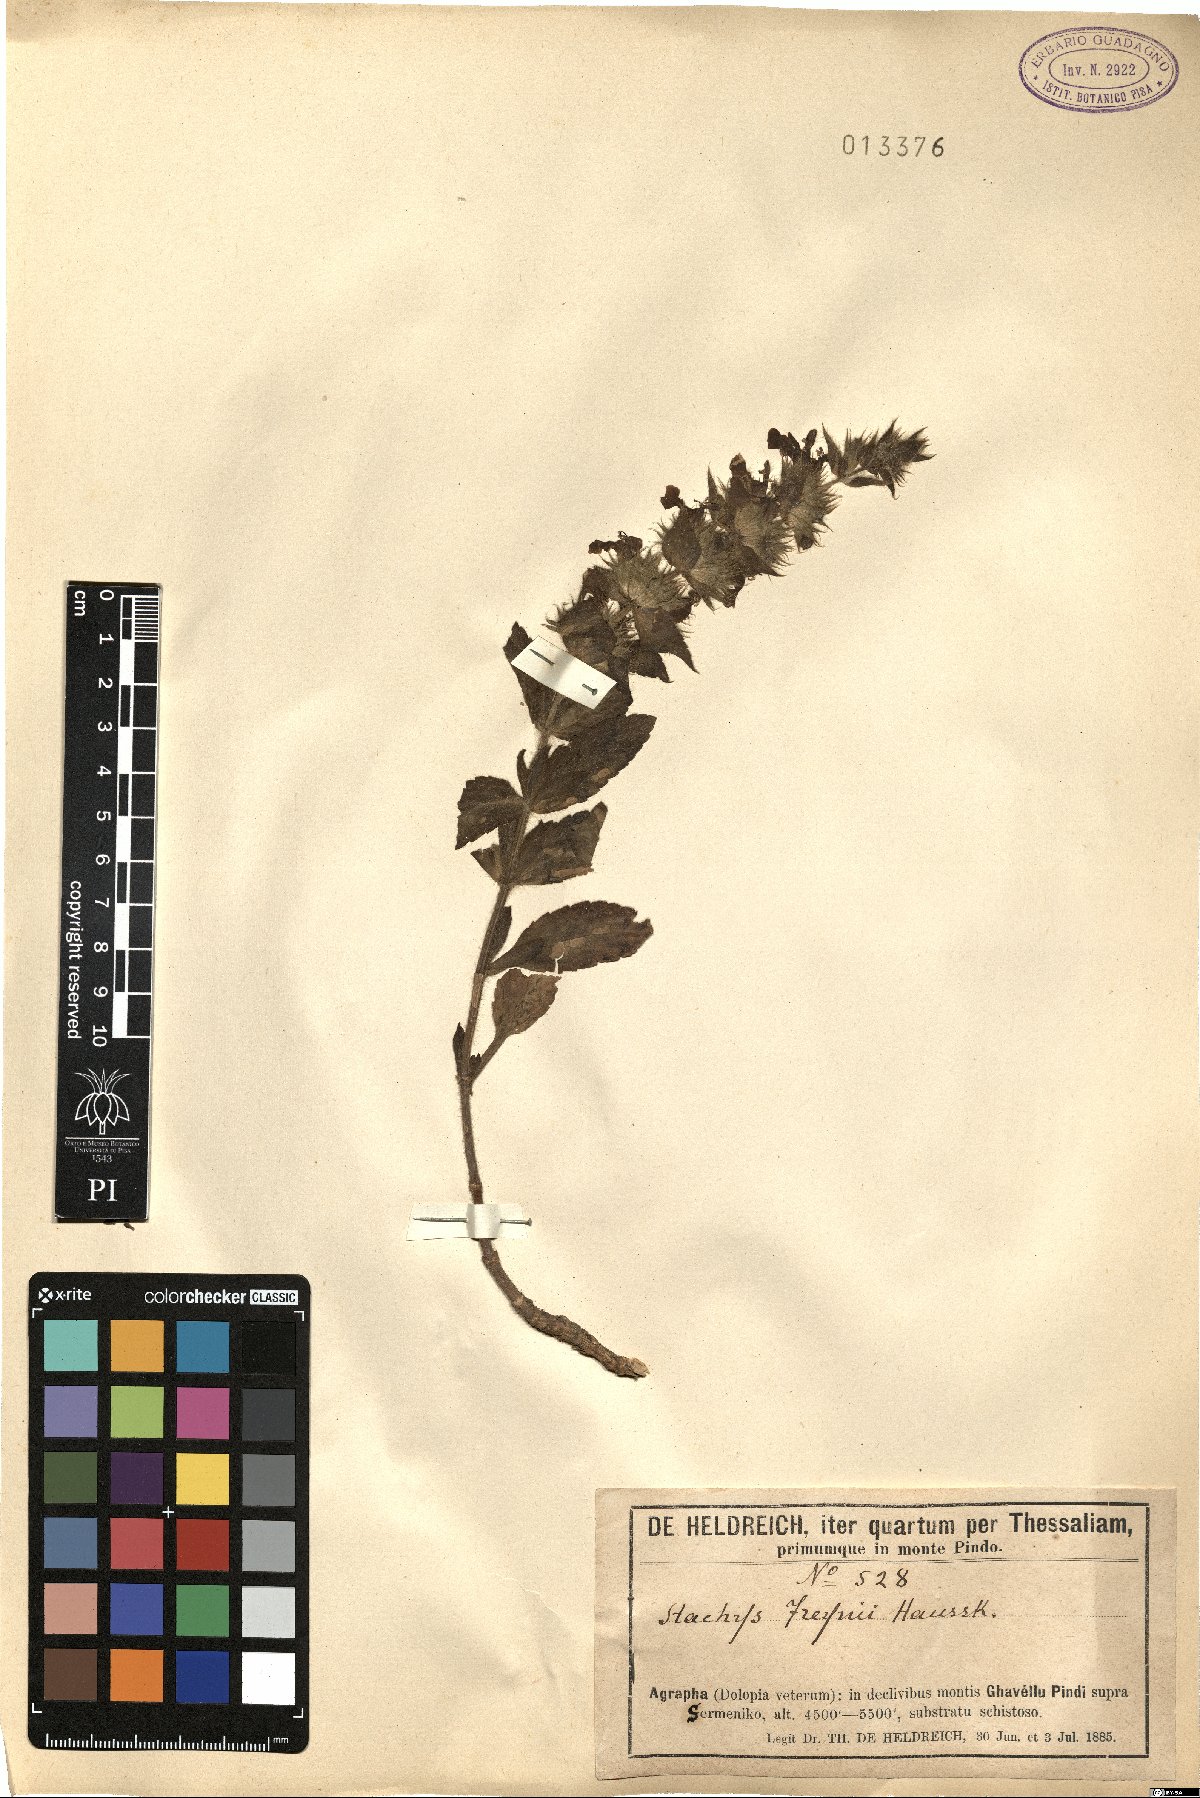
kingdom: Plantae
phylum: Tracheophyta
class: Magnoliopsida
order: Lamiales
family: Lamiaceae
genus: Stachys
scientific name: Stachys plumosa
